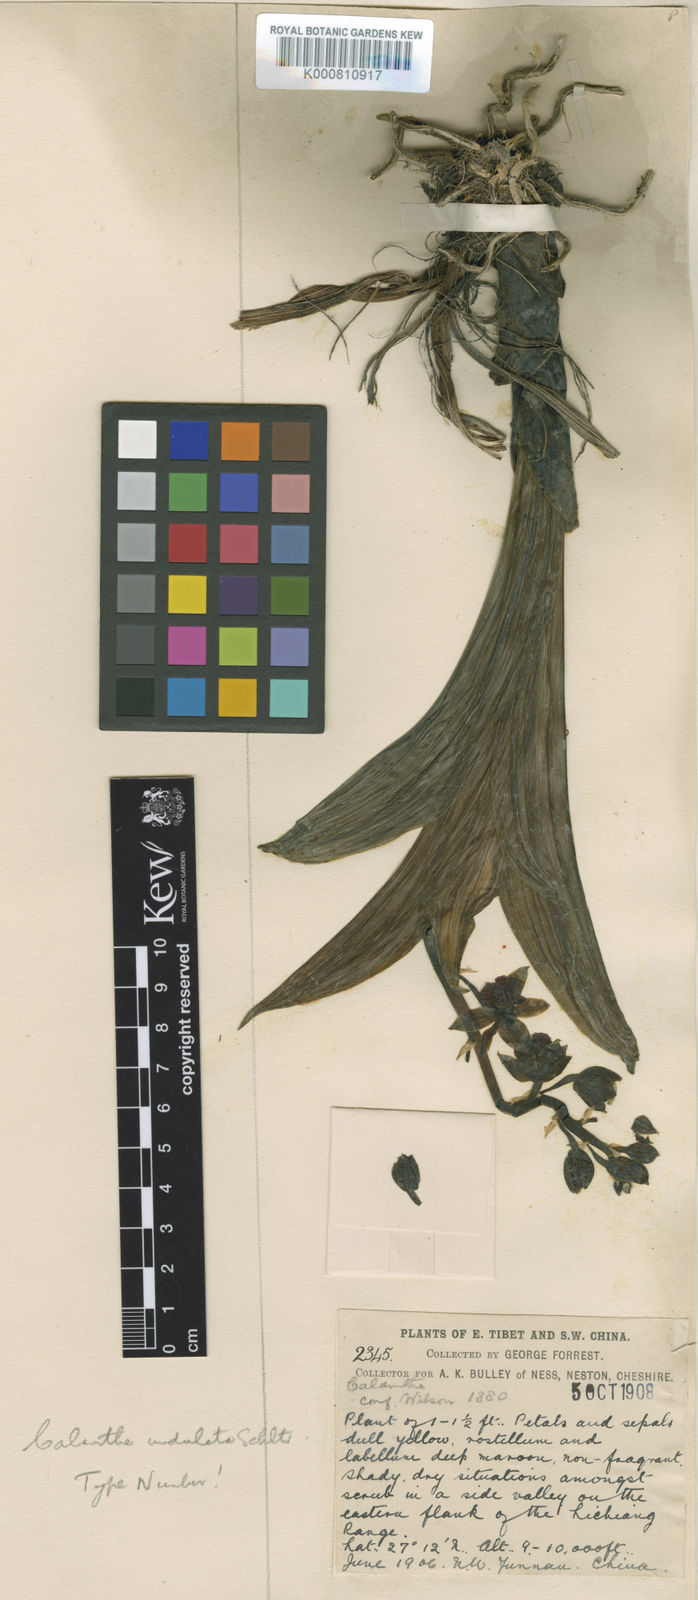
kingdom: Plantae
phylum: Tracheophyta
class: Liliopsida
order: Asparagales
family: Orchidaceae
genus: Calanthe
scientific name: Calanthe tricarinata
